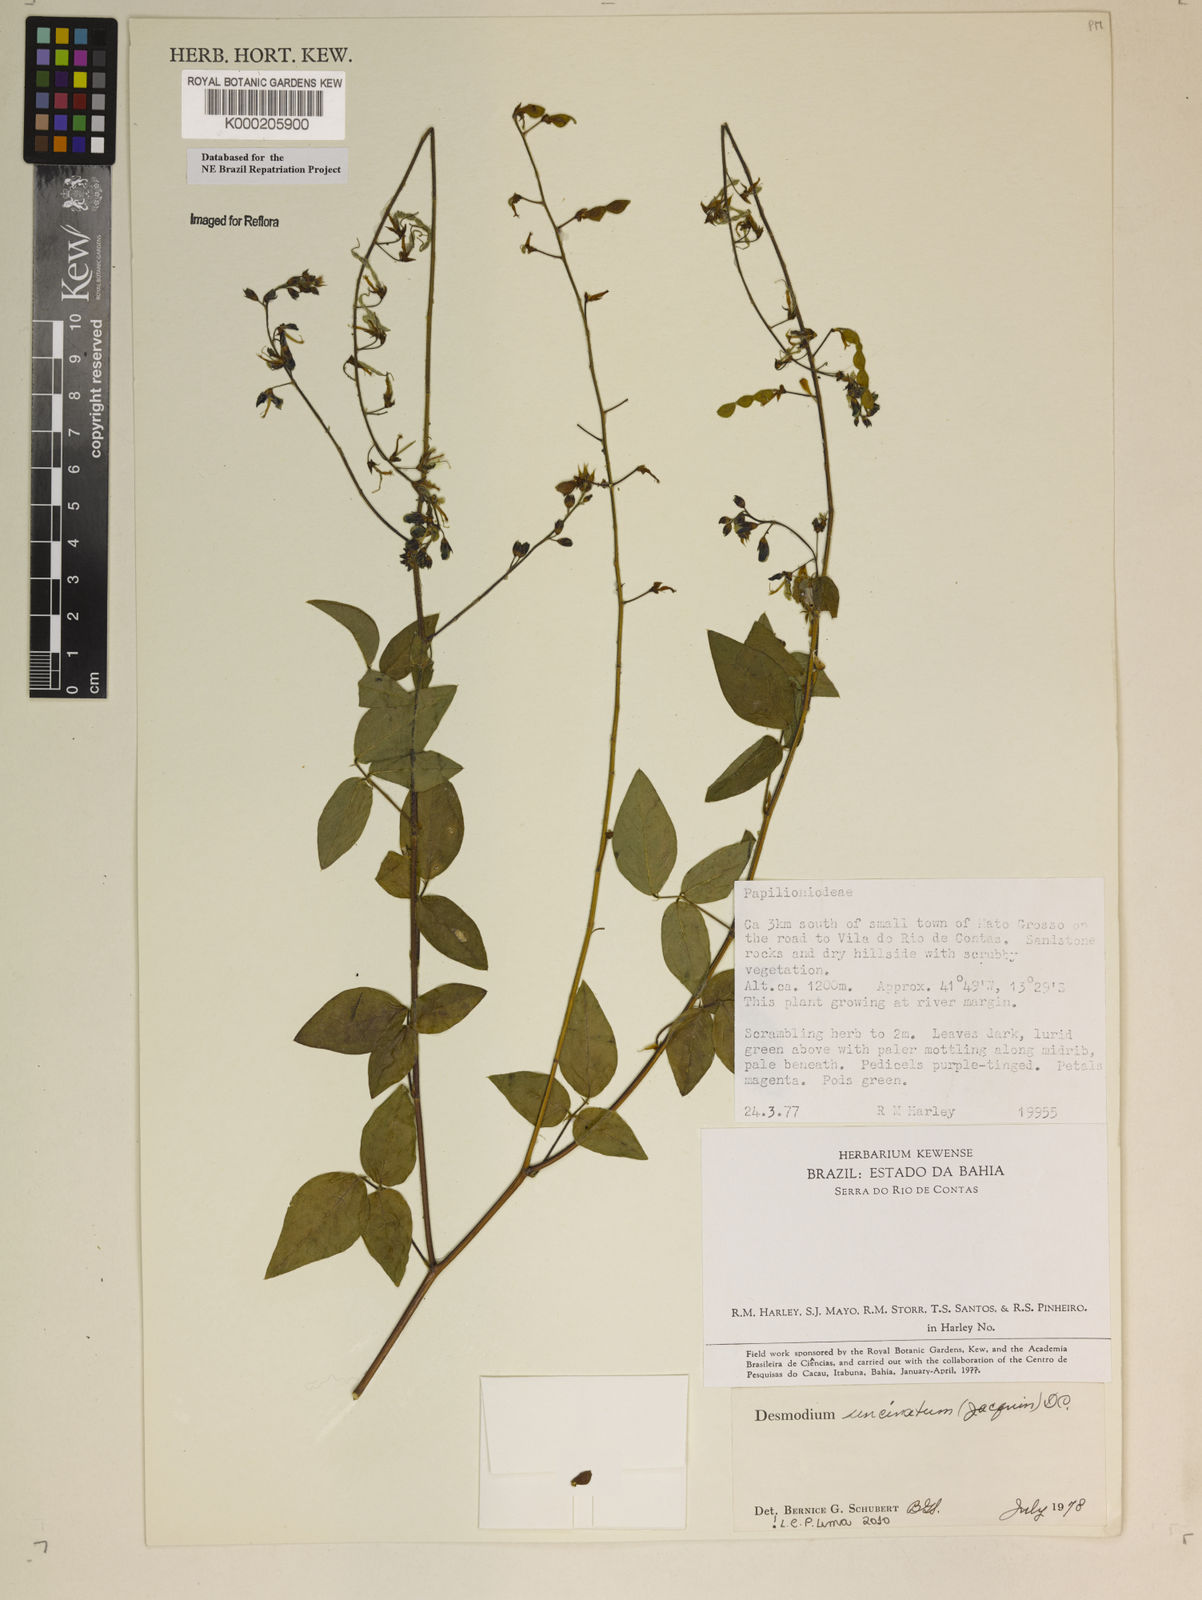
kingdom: Plantae
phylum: Tracheophyta
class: Magnoliopsida
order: Fabales
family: Fabaceae
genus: Desmodium
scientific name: Desmodium uncinatum
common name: Silverleaf desmodium
